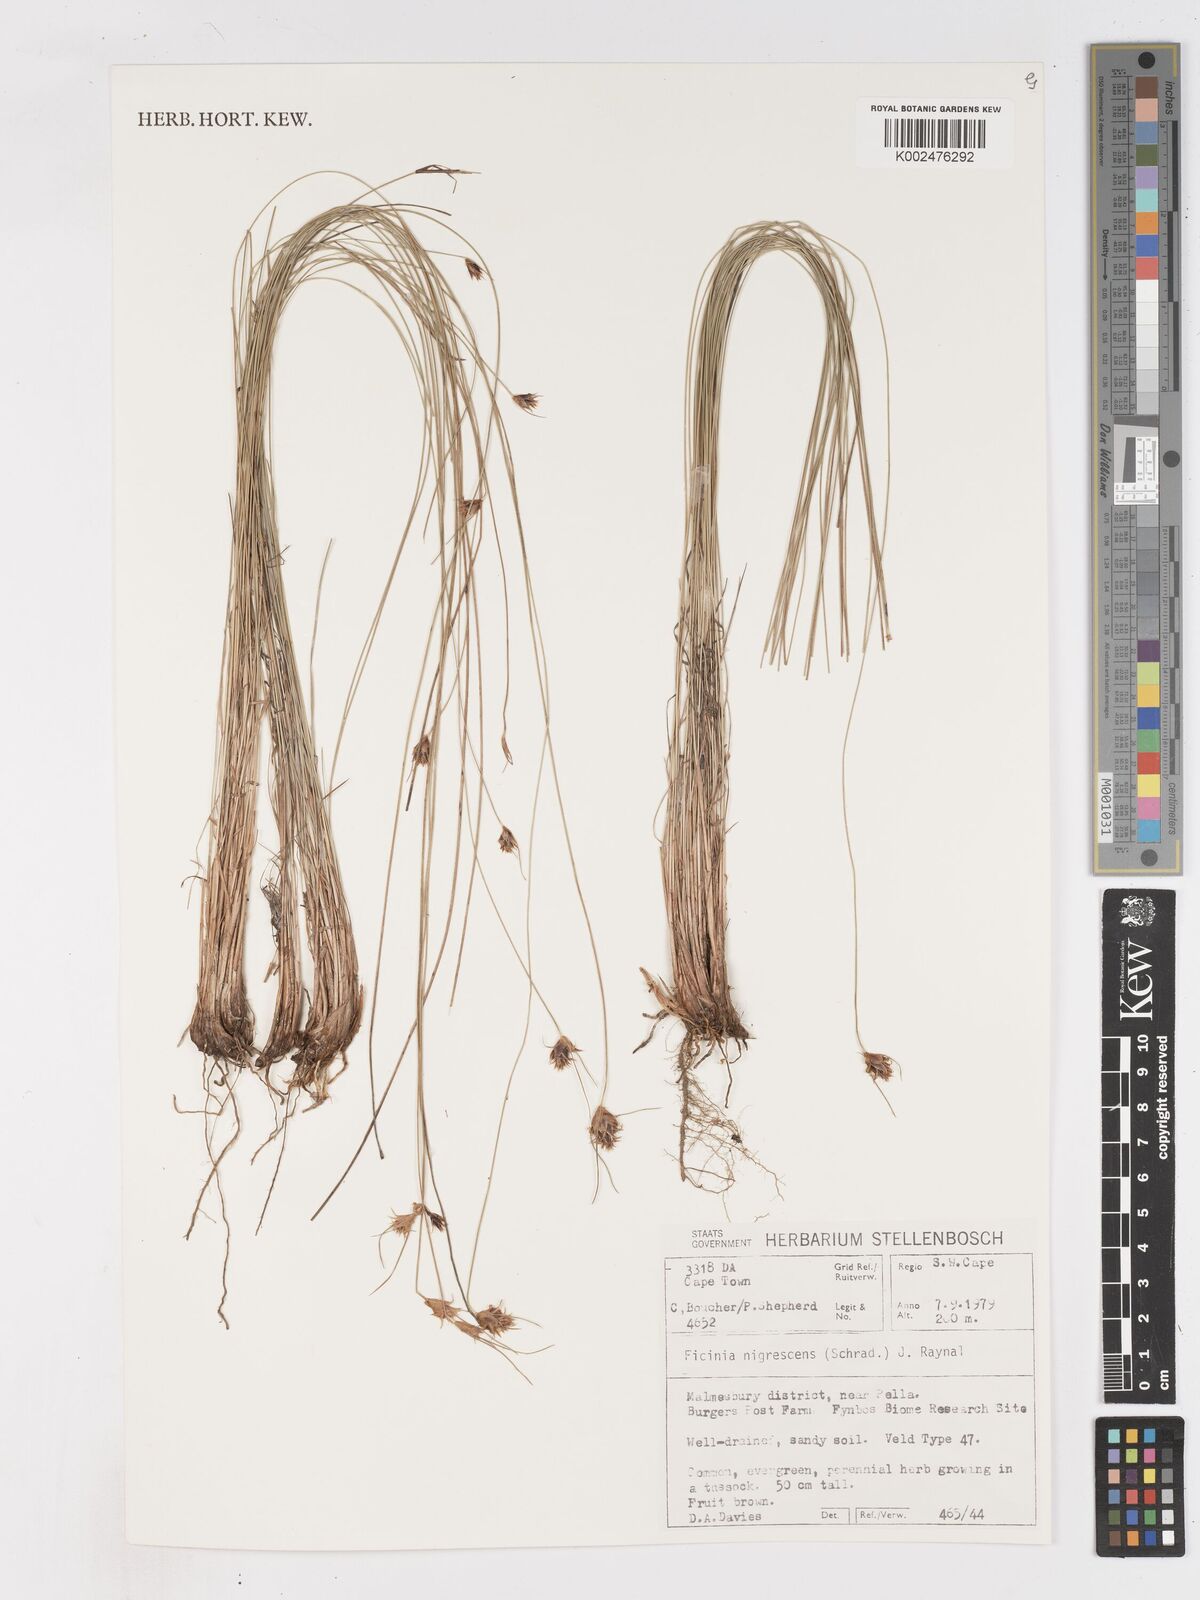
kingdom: Plantae
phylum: Tracheophyta
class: Liliopsida
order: Poales
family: Cyperaceae
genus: Ficinia
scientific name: Ficinia nigrescens
